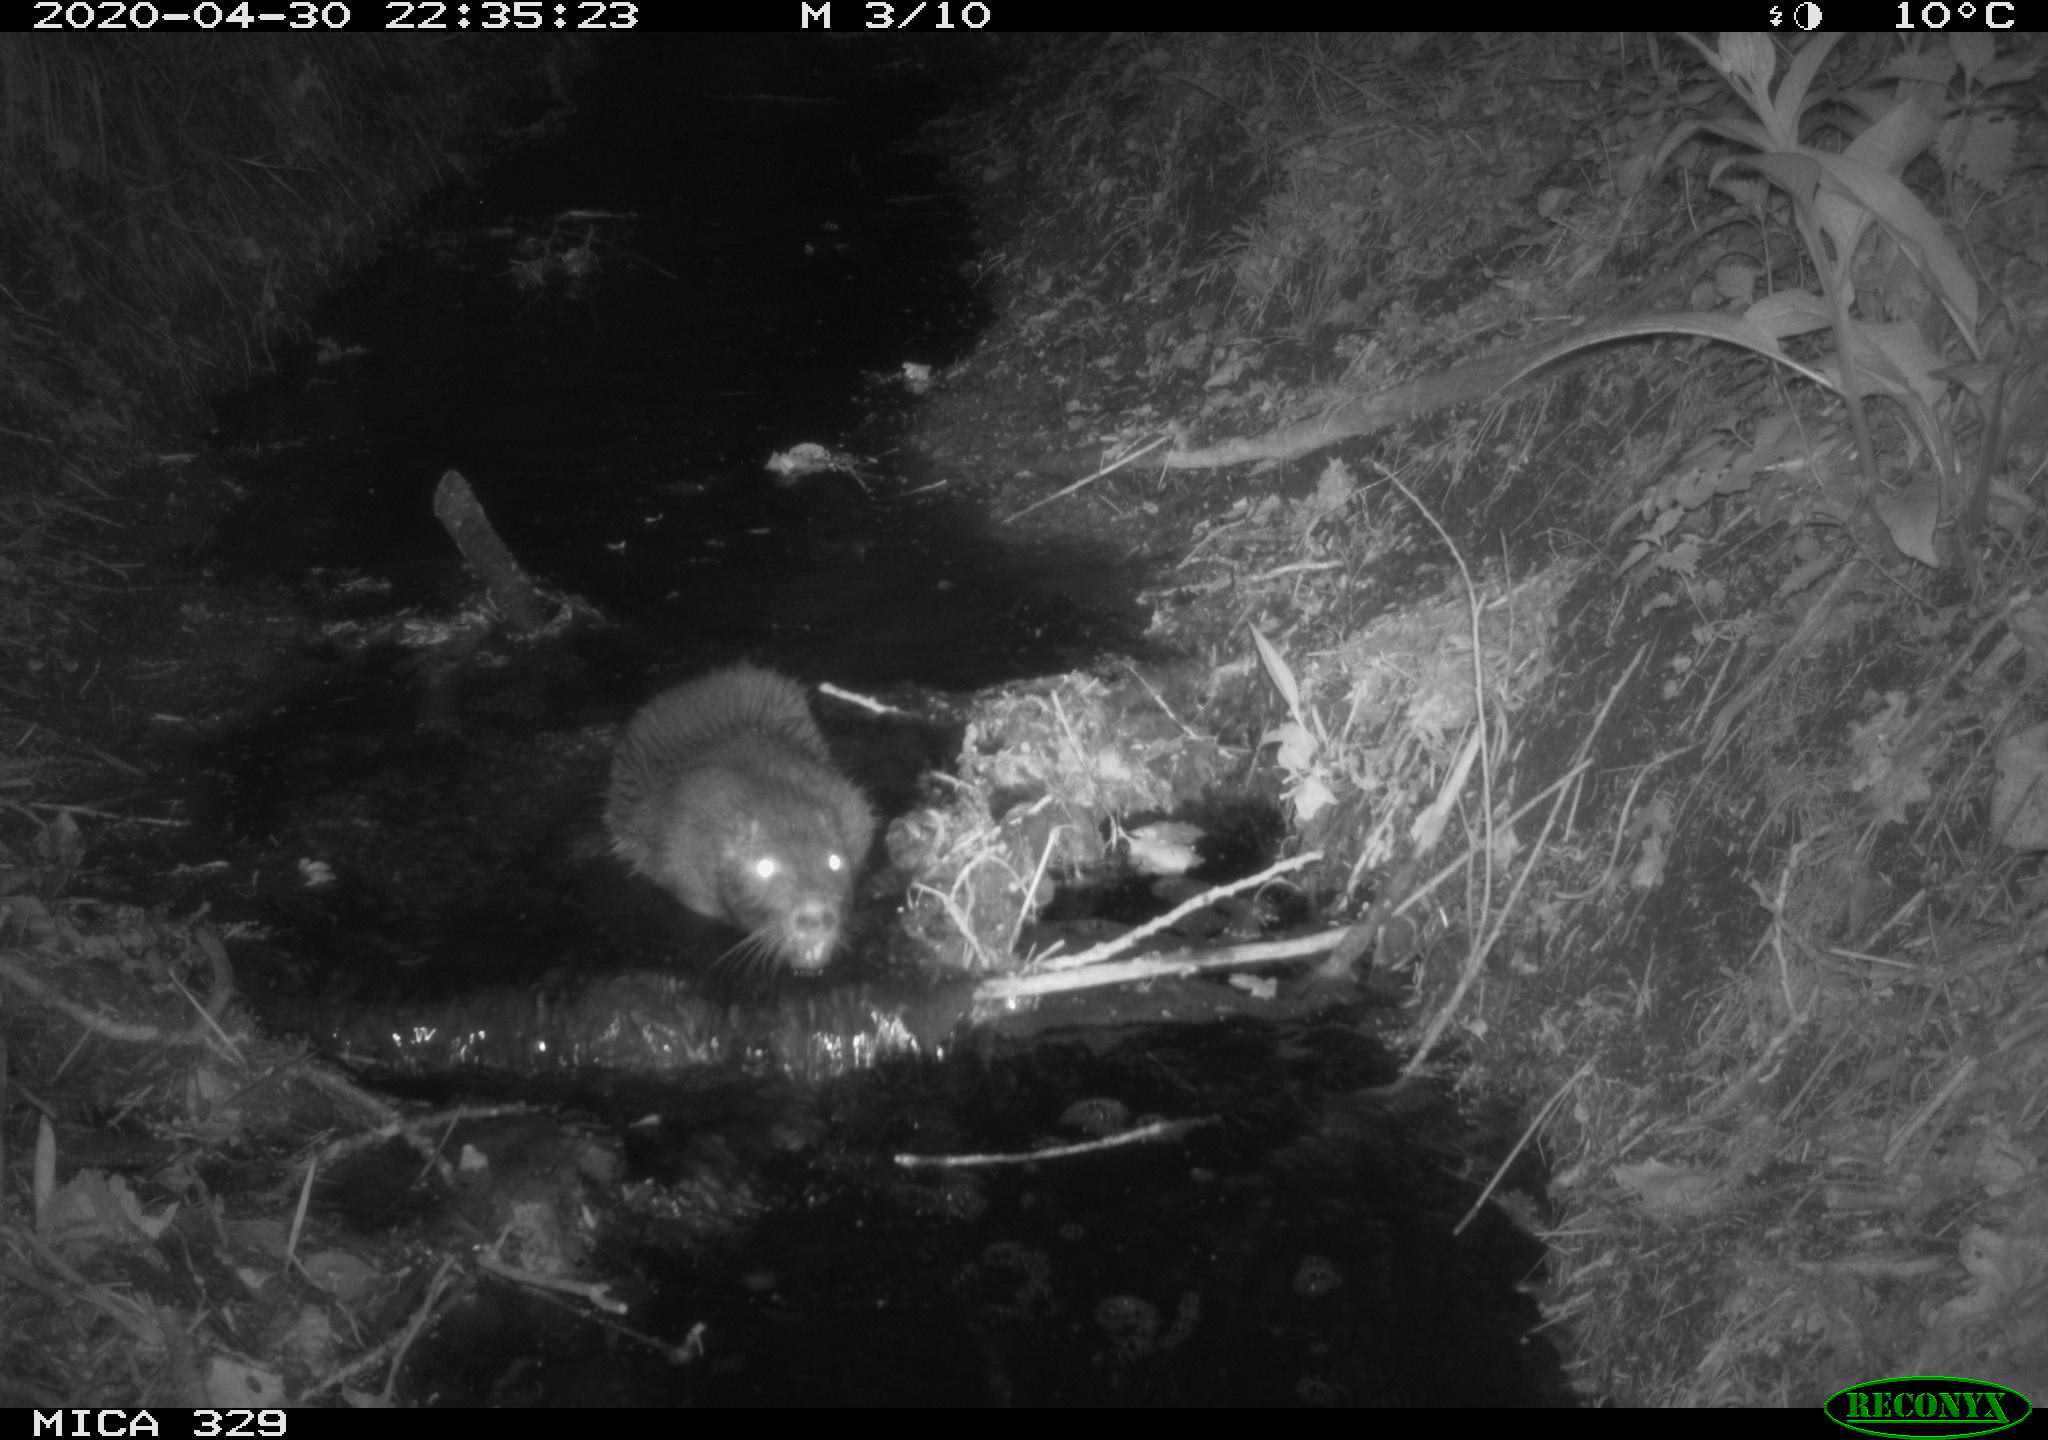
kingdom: Animalia
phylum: Chordata
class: Mammalia
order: Rodentia
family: Myocastoridae
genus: Myocastor
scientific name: Myocastor coypus
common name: Coypu
